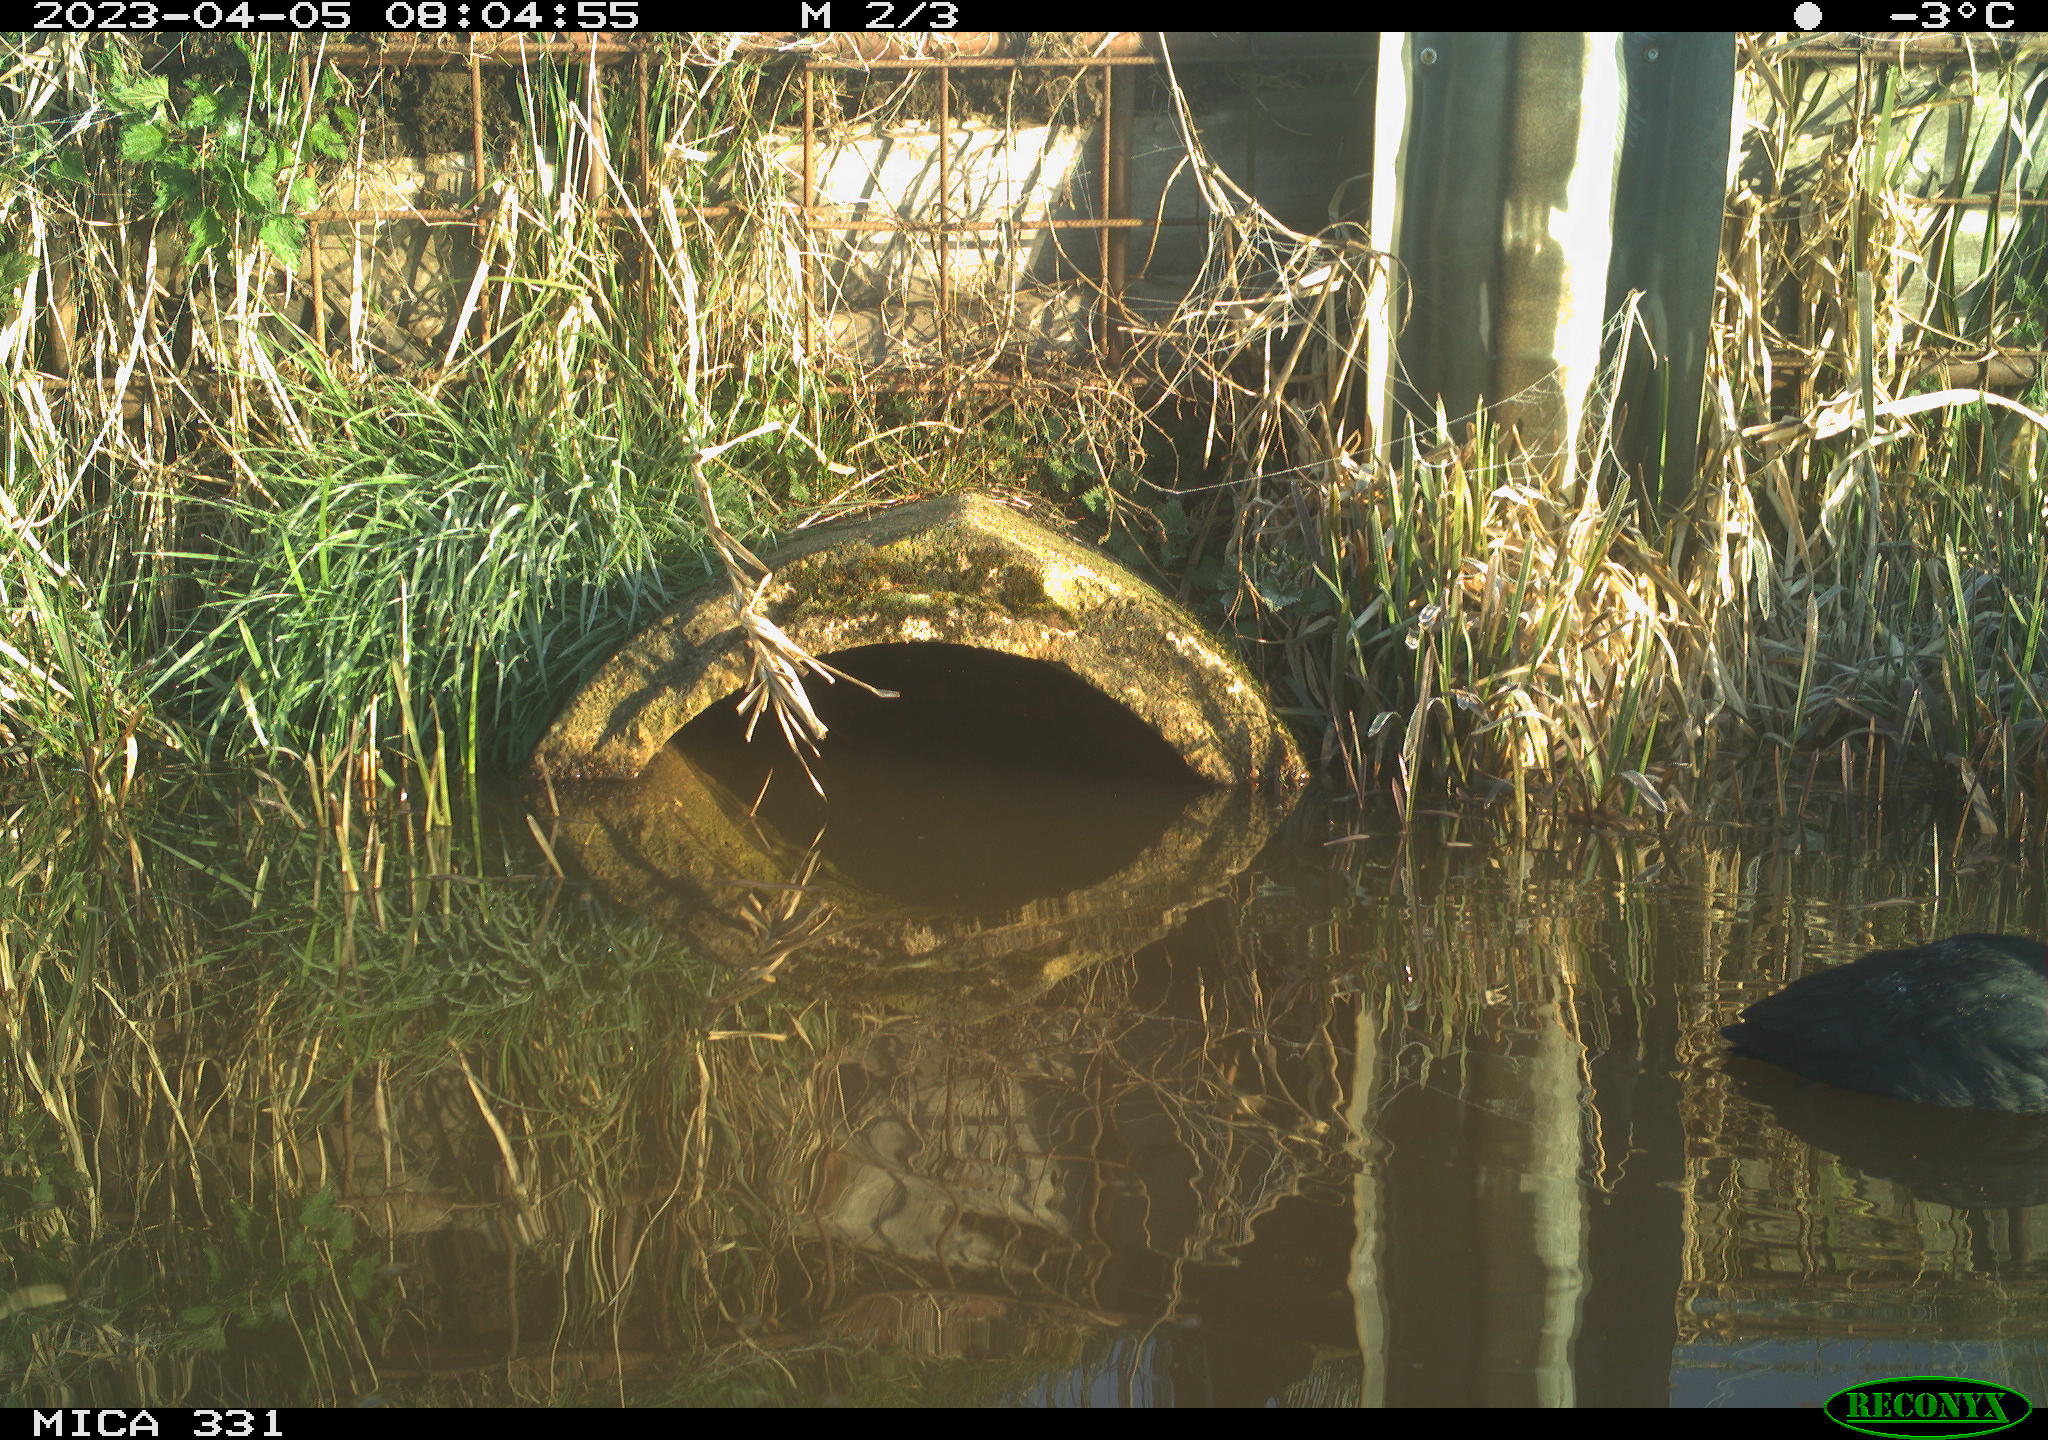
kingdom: Animalia
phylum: Chordata
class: Aves
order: Gruiformes
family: Rallidae
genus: Fulica
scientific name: Fulica atra
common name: Eurasian coot
